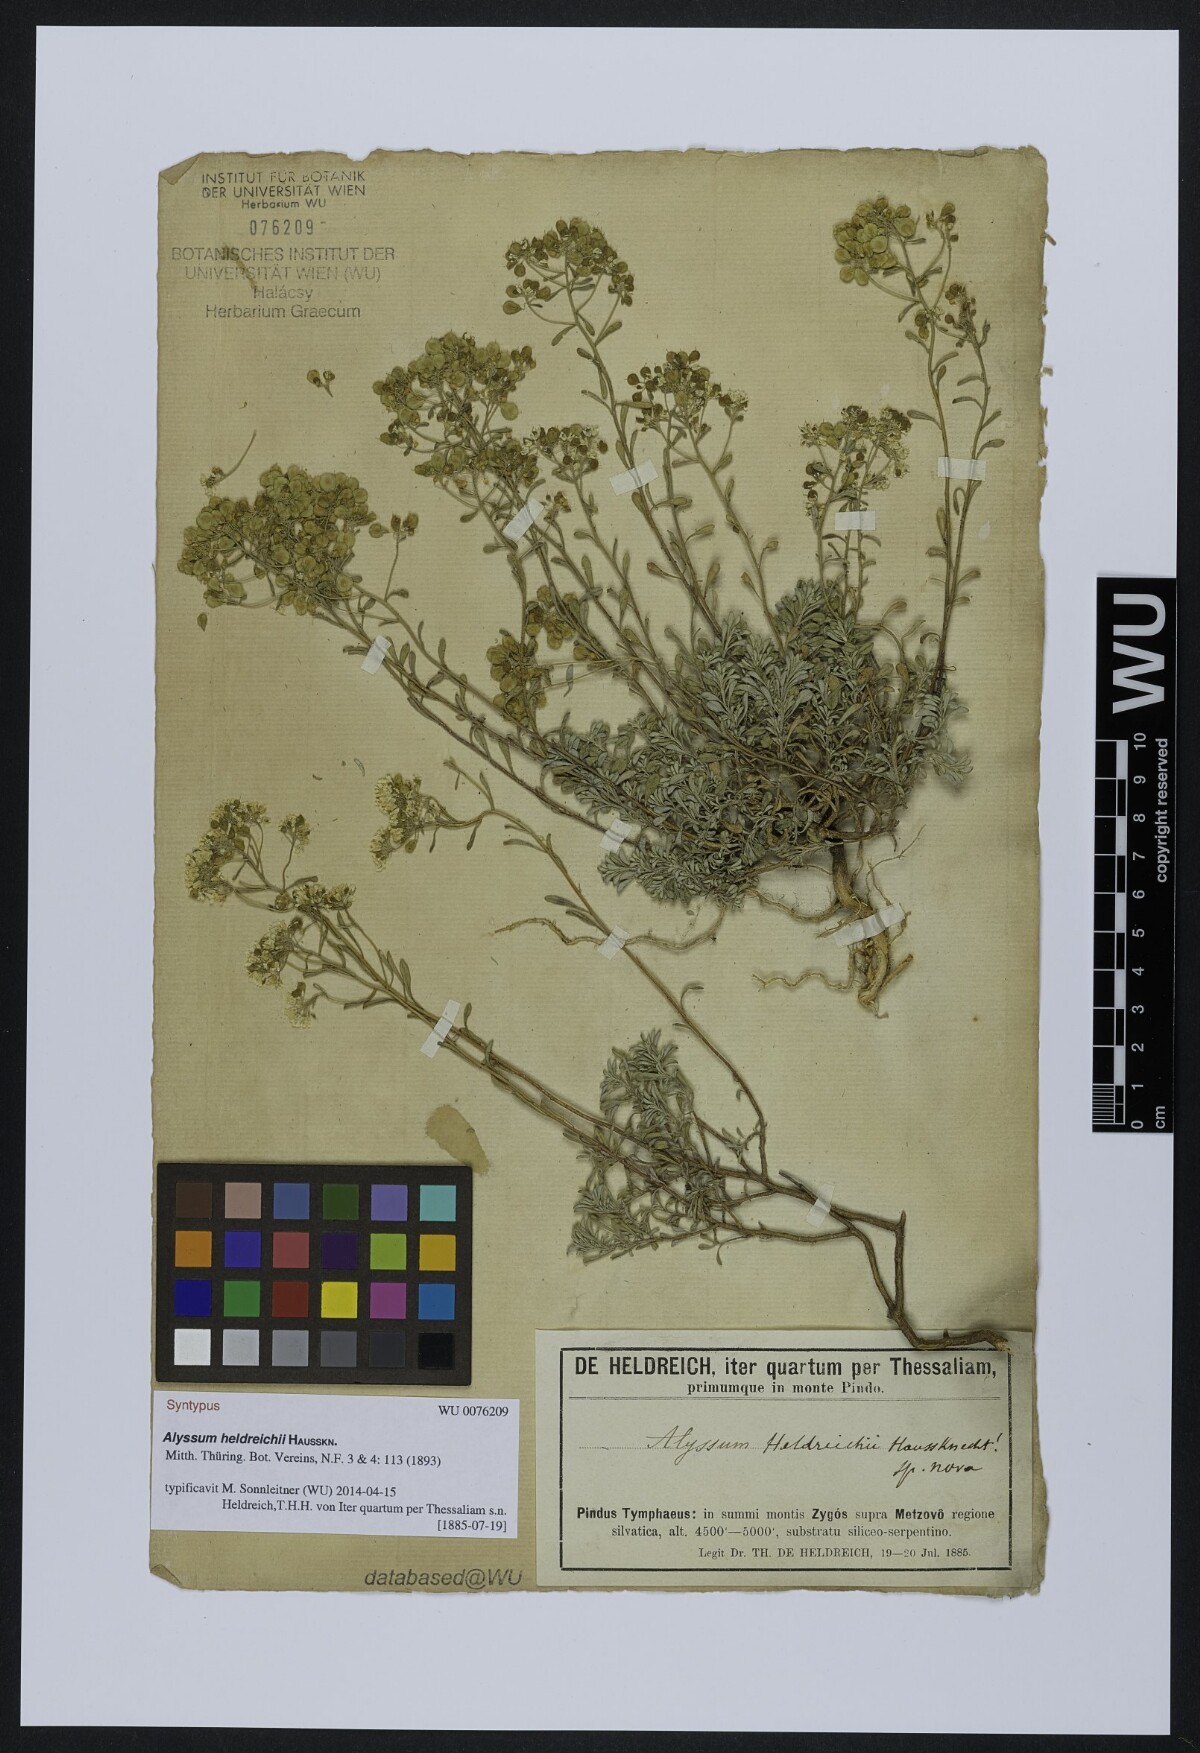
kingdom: Plantae
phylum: Tracheophyta
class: Magnoliopsida
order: Brassicales
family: Brassicaceae
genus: Odontarrhena
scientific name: Odontarrhena heldreichii
